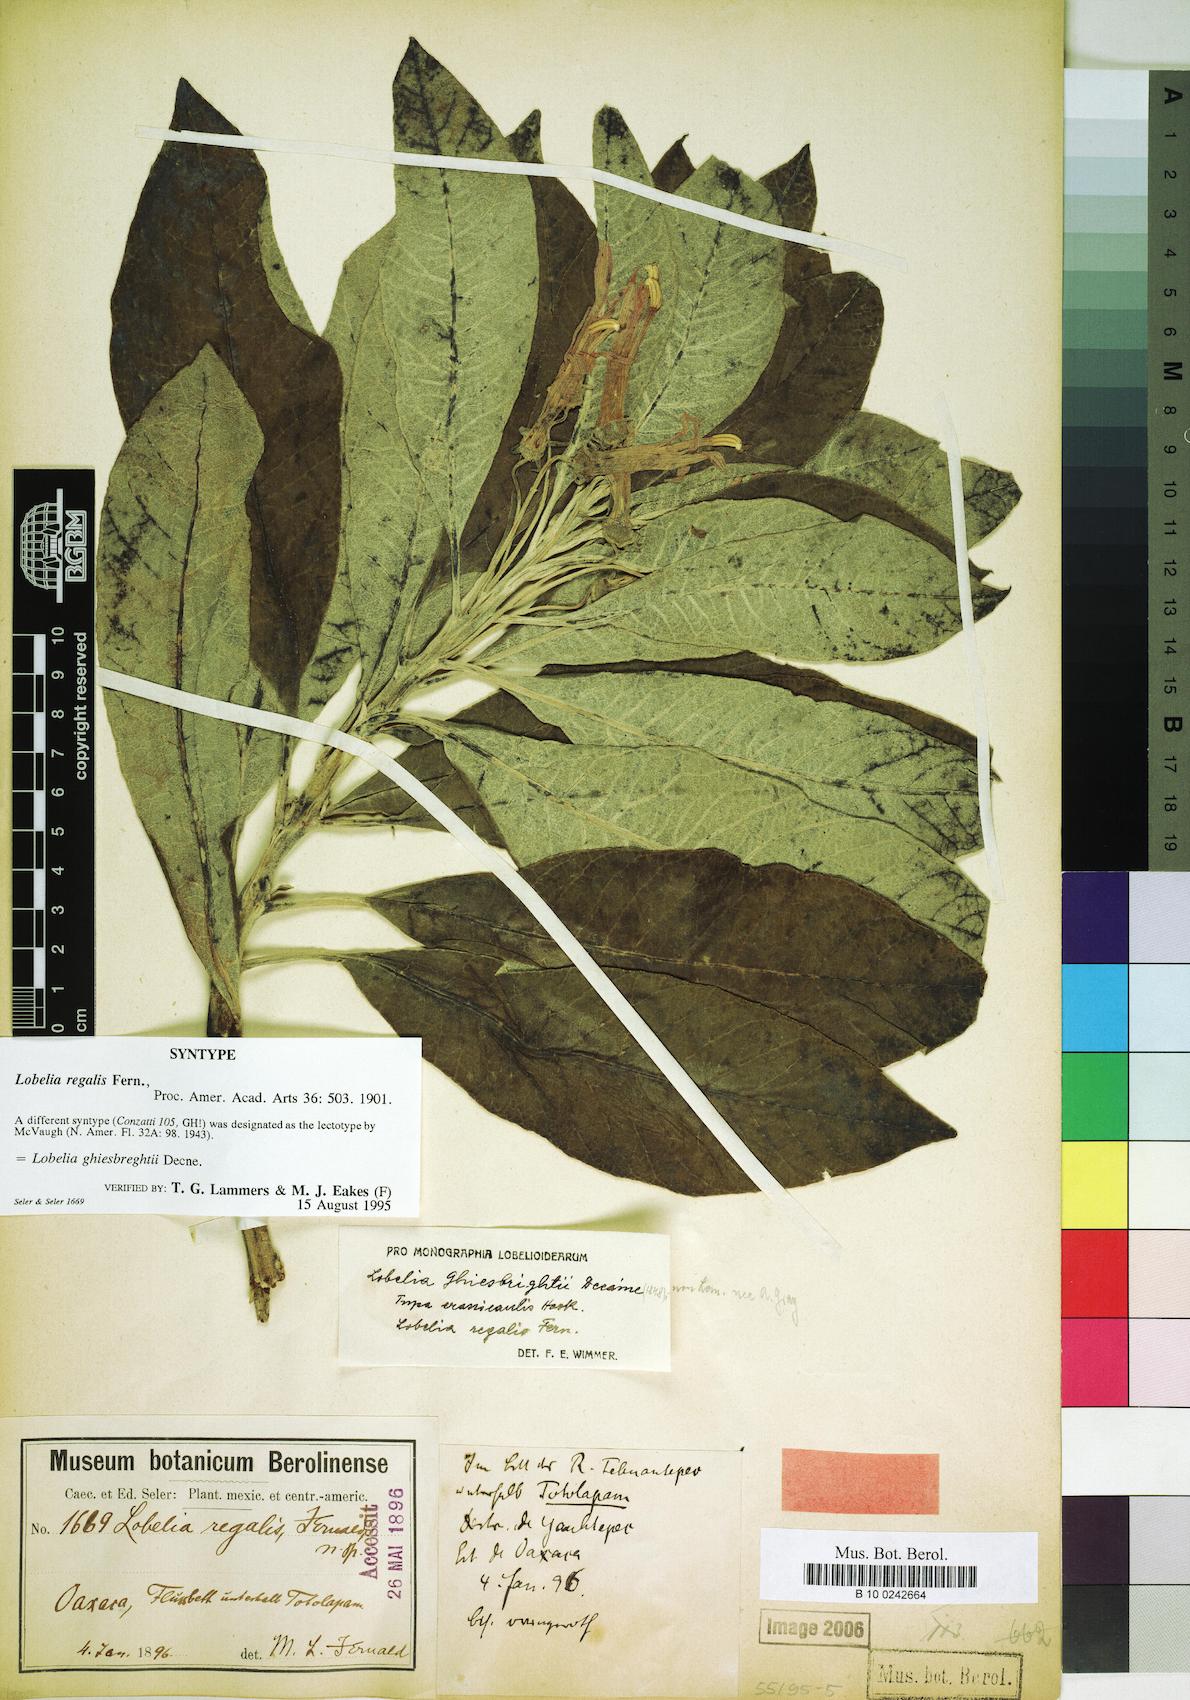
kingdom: Plantae
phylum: Tracheophyta
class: Magnoliopsida
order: Asterales
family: Campanulaceae
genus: Lobelia
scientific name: Lobelia ghiesbreghtii
